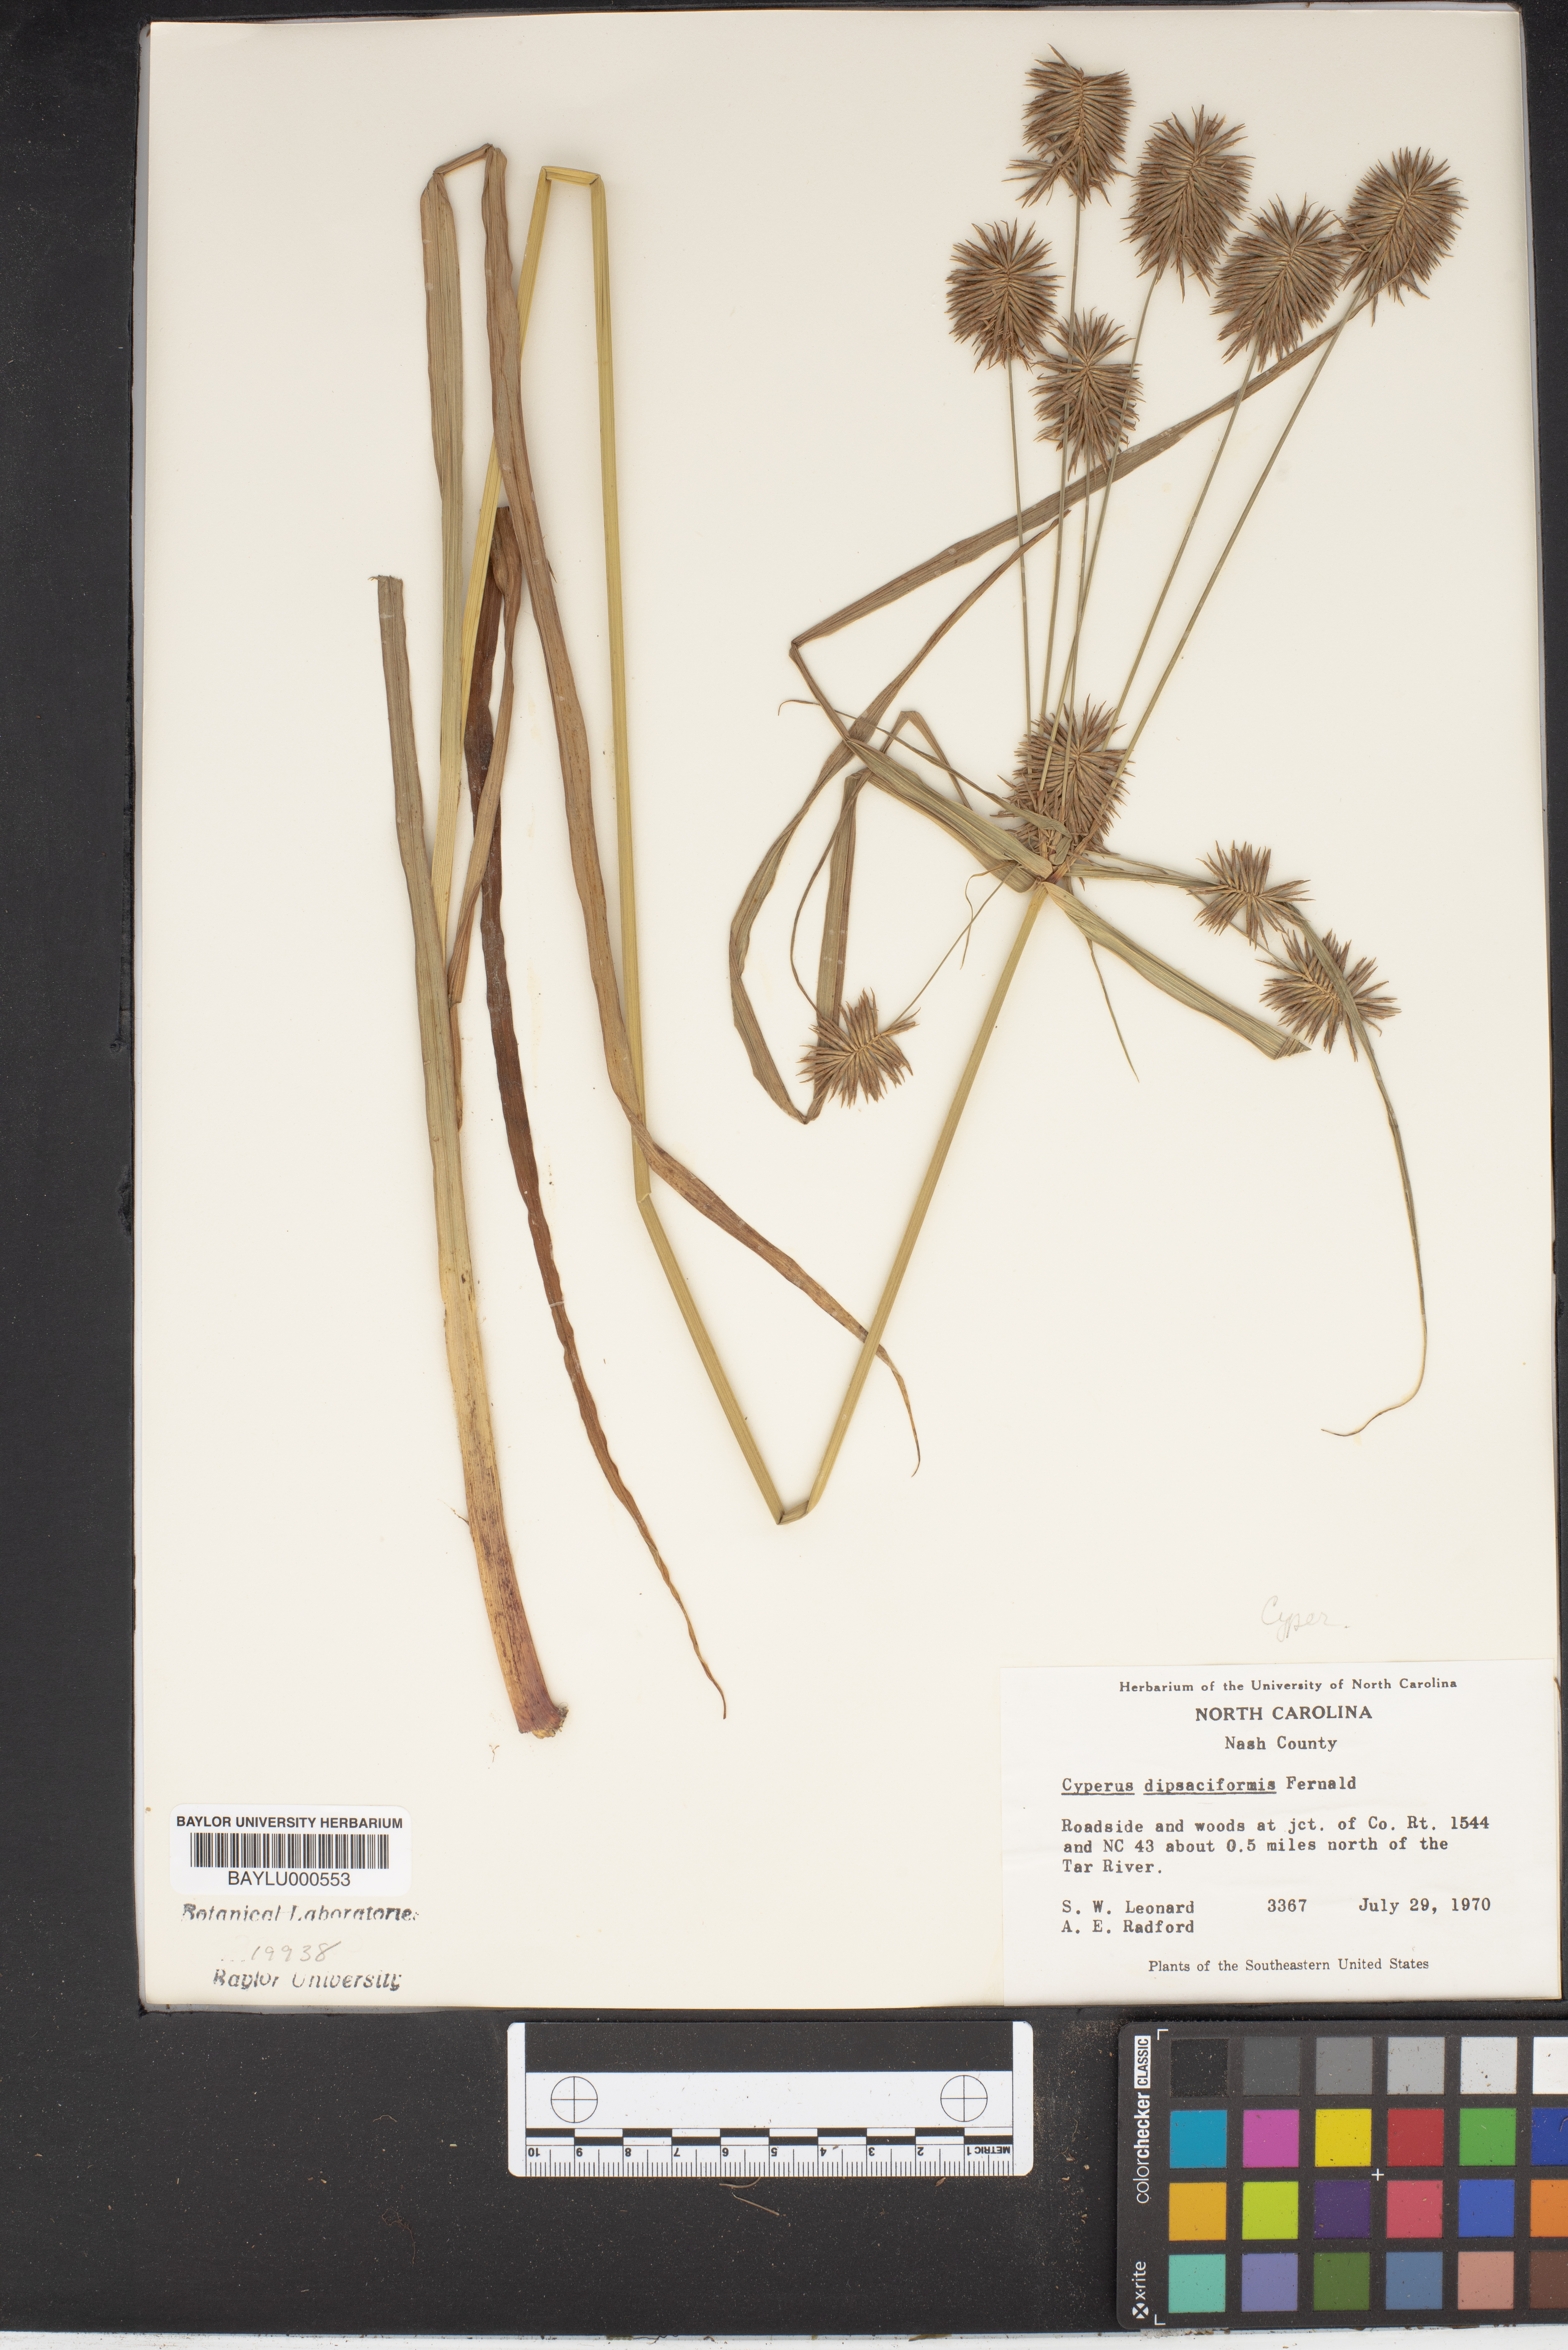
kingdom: Plantae
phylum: Tracheophyta
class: Liliopsida
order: Poales
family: Cyperaceae
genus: Cyperus
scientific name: Cyperus retrofractus
